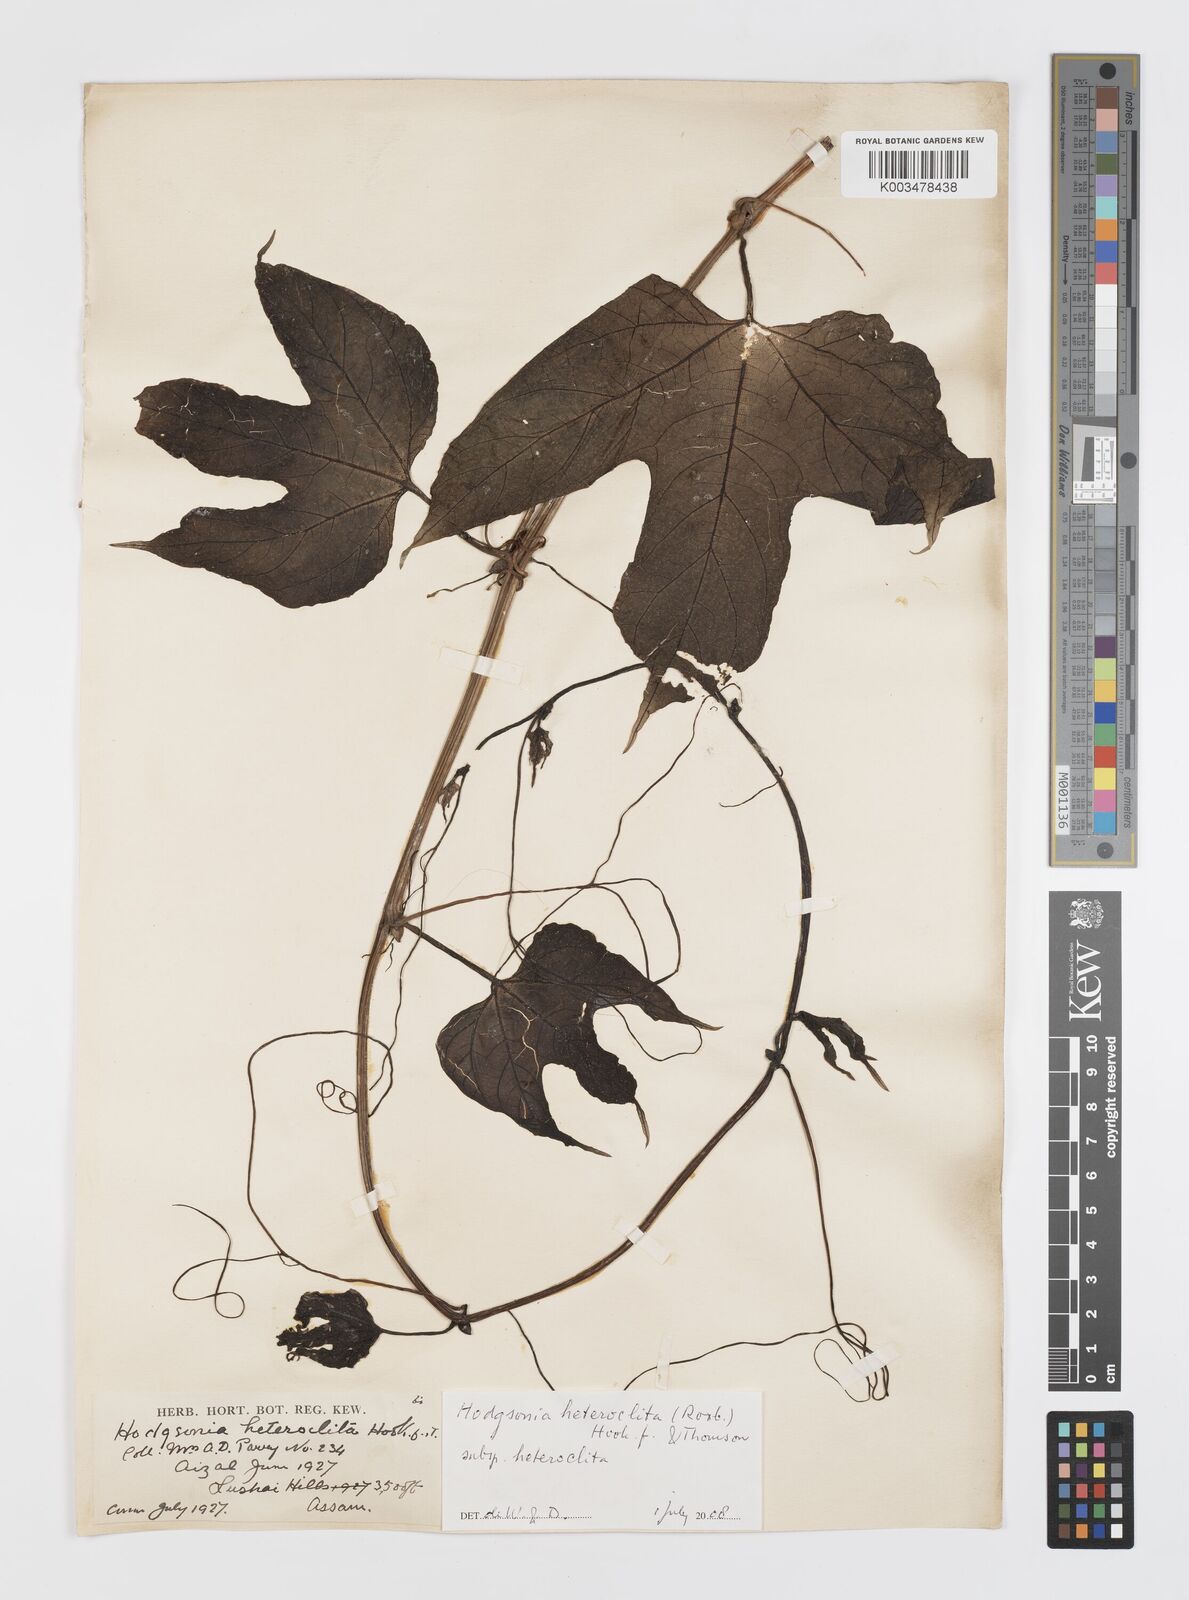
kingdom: Plantae
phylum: Tracheophyta
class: Magnoliopsida
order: Cucurbitales
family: Cucurbitaceae
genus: Hodgsonia
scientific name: Hodgsonia macrocarpa
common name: Chinese lardfruit
